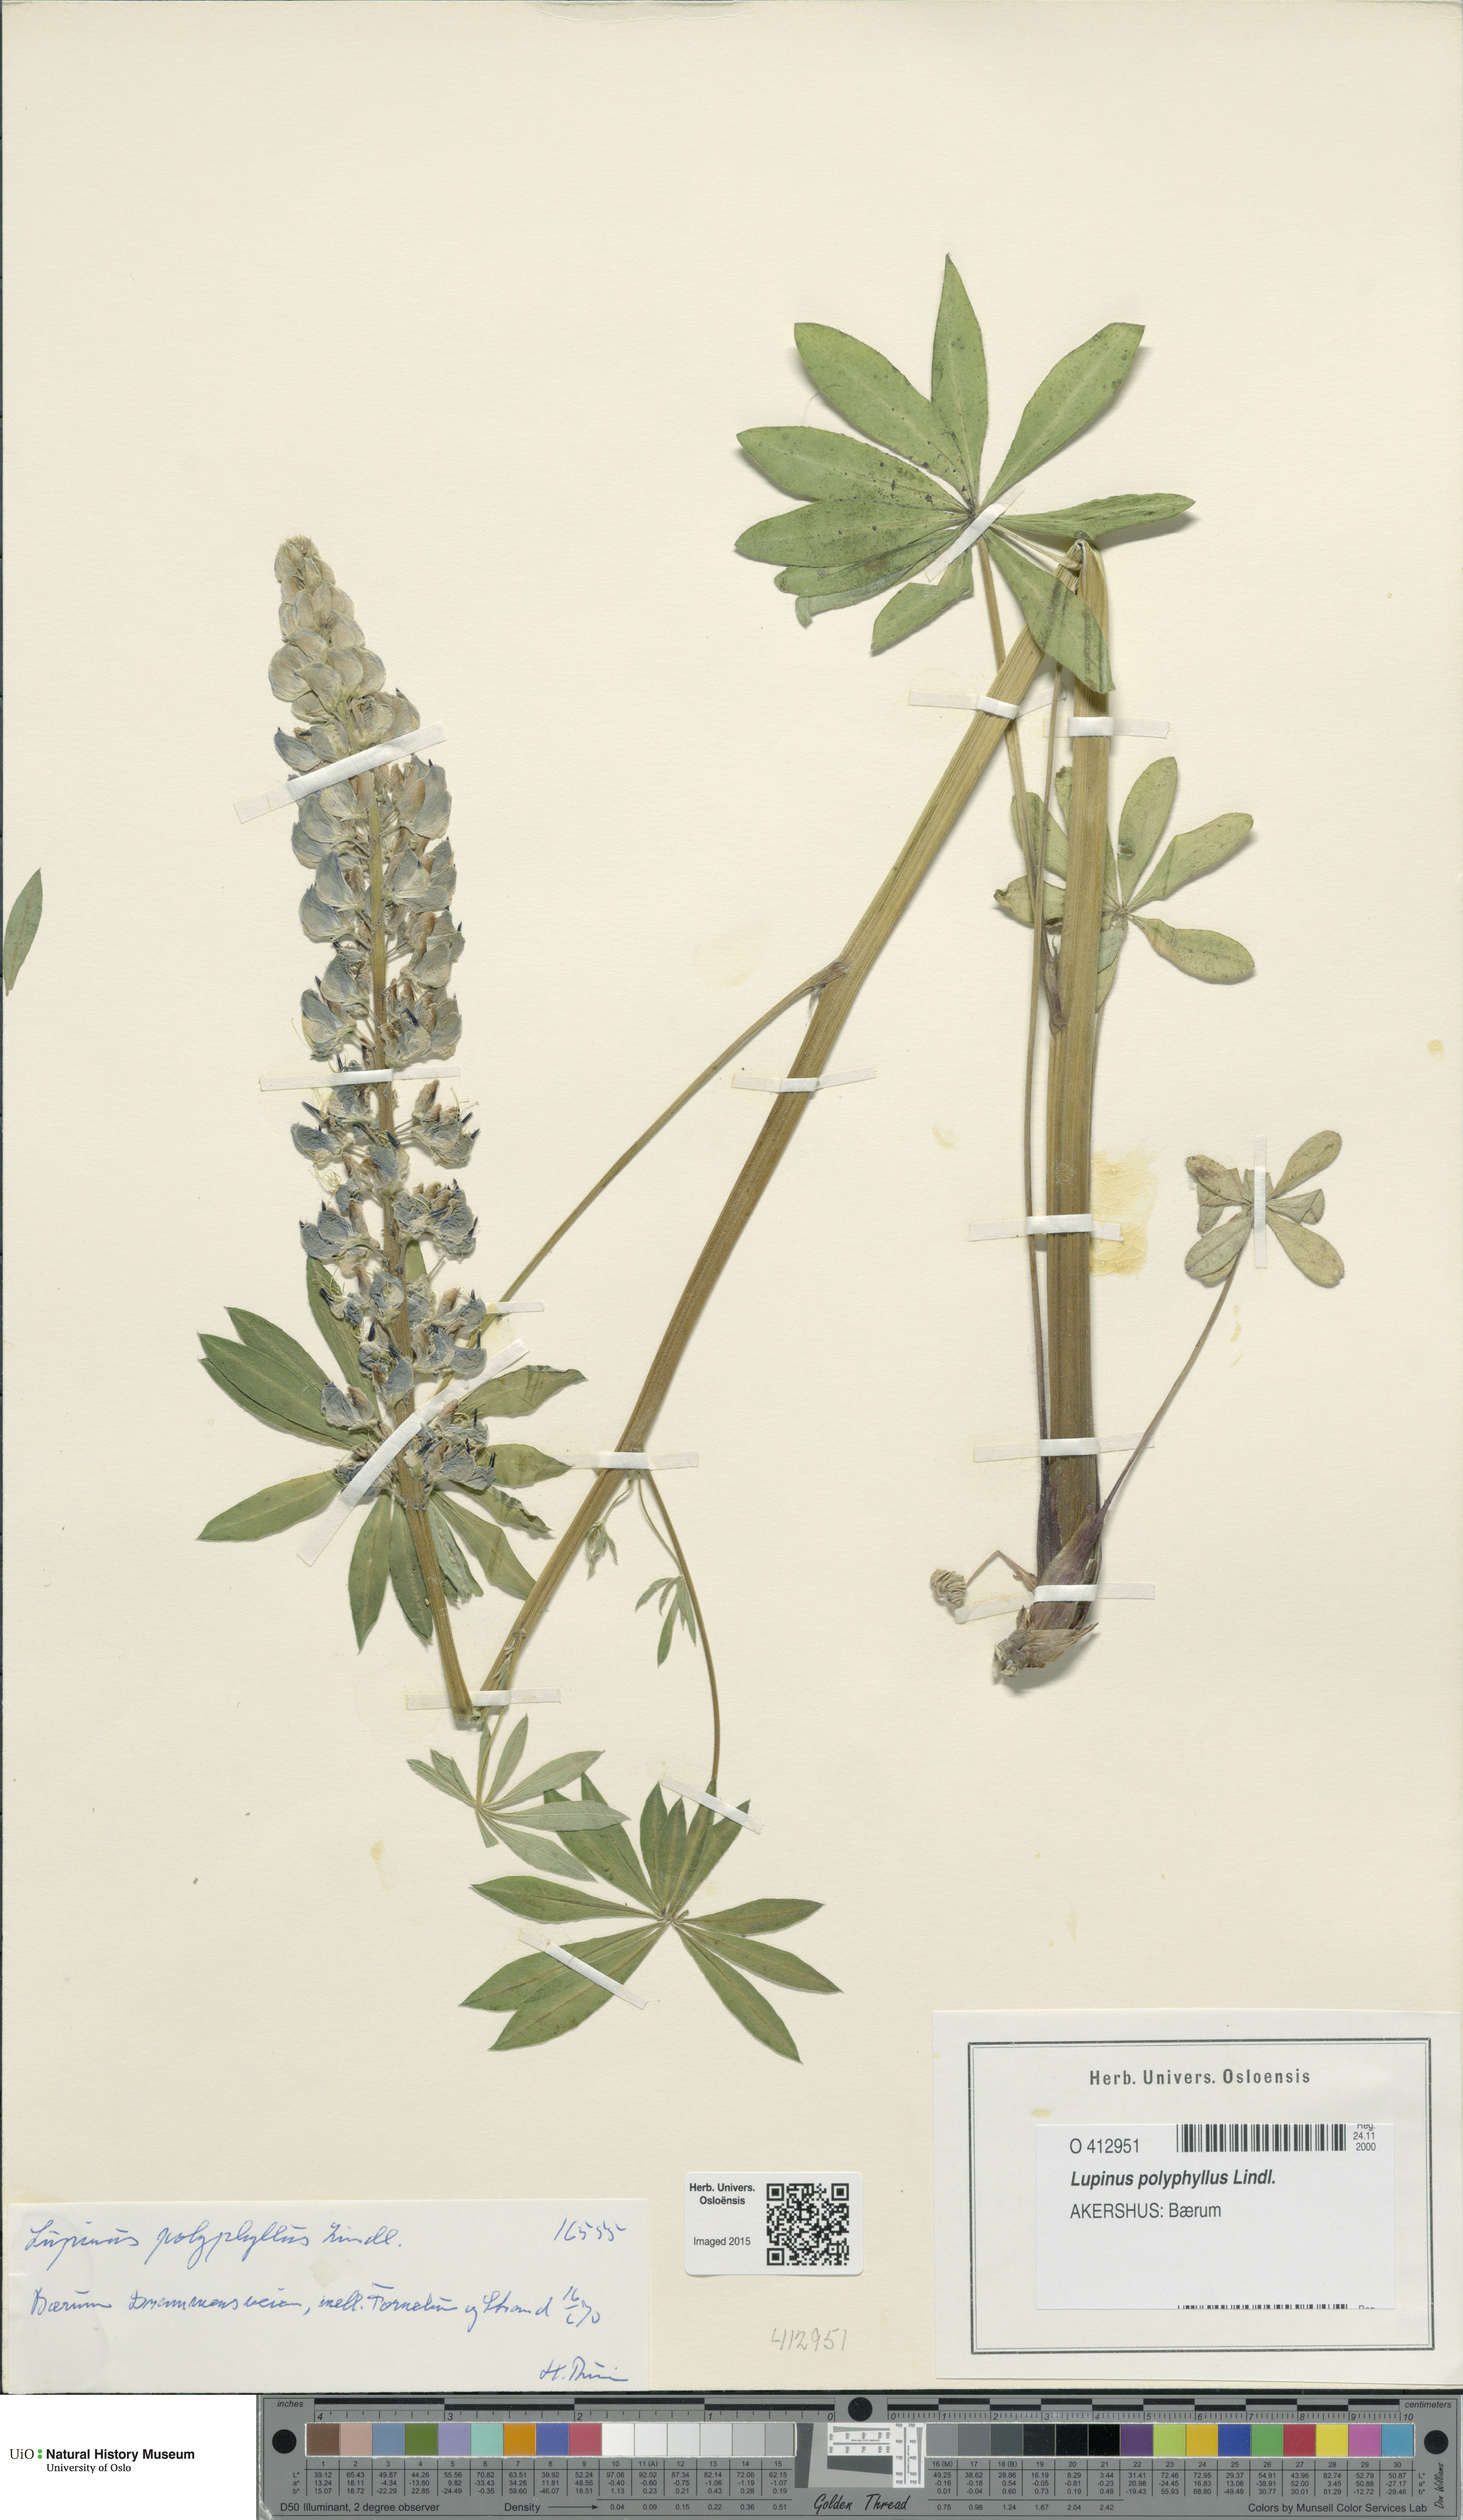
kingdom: Plantae
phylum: Tracheophyta
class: Magnoliopsida
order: Fabales
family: Fabaceae
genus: Lupinus
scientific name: Lupinus polyphyllus
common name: Garden lupin
